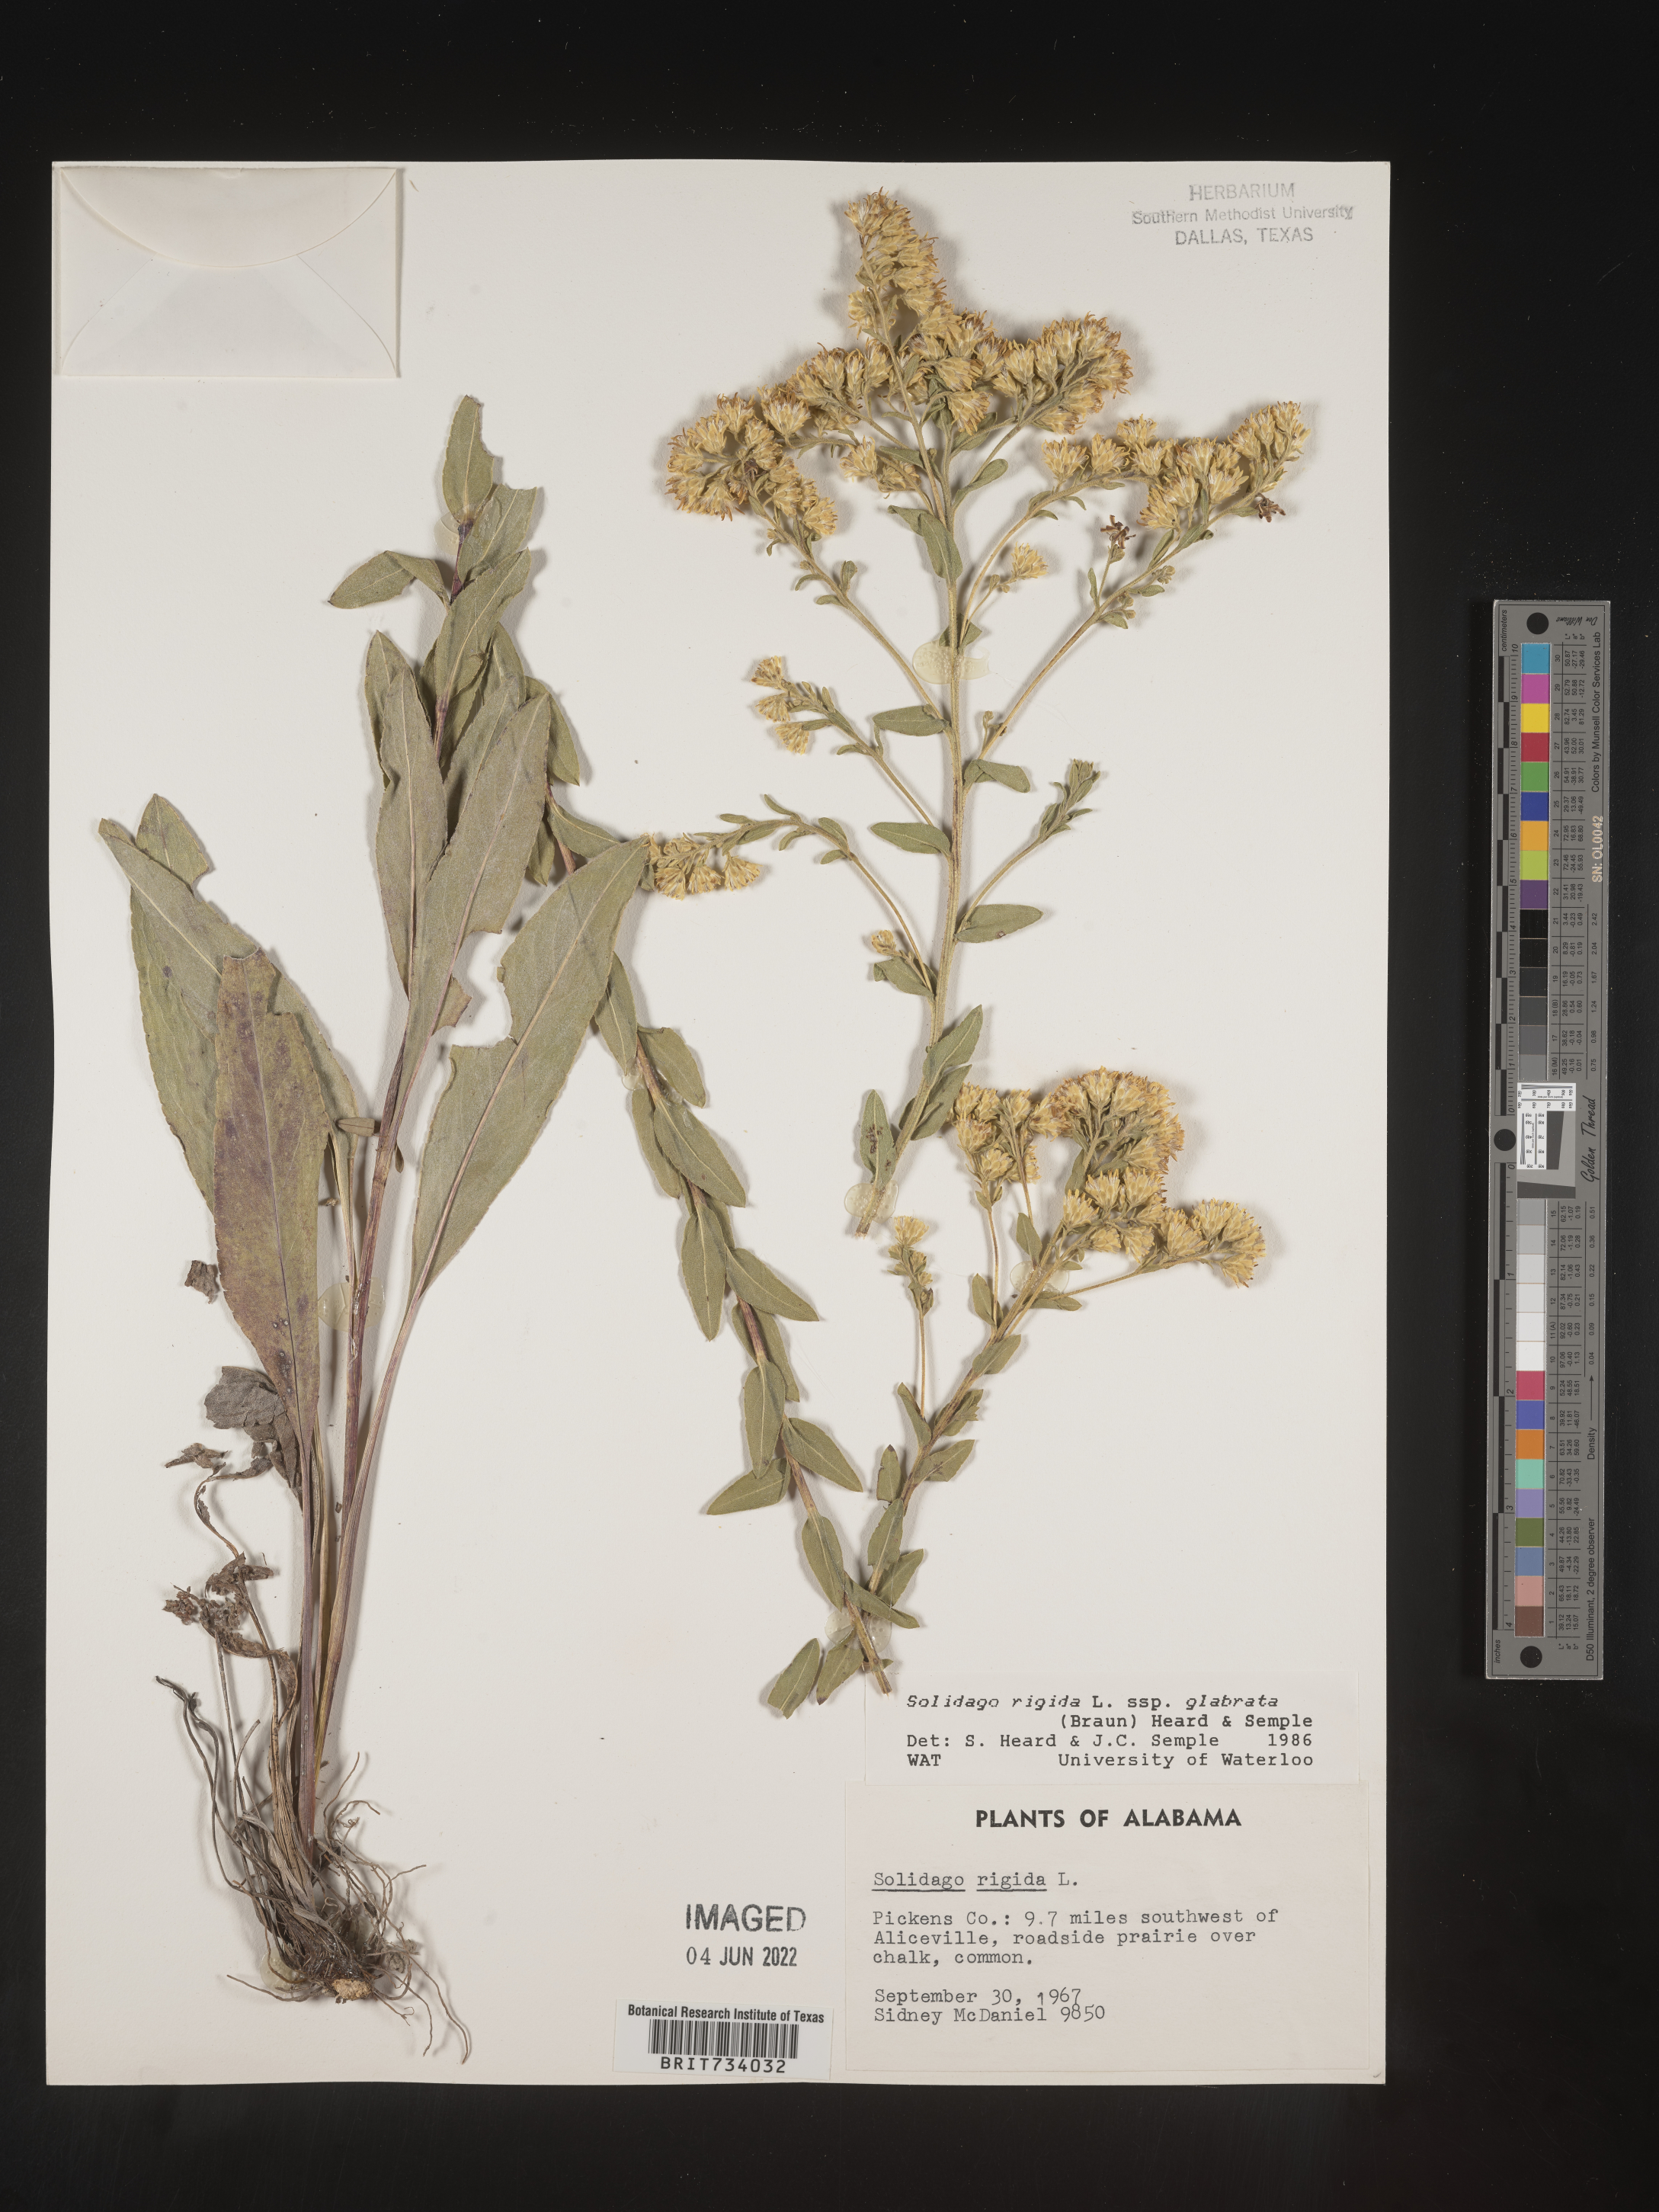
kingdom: Plantae
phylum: Tracheophyta
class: Magnoliopsida
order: Asterales
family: Asteraceae
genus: Solidago
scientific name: Solidago rigida
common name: Rigid goldenrod
